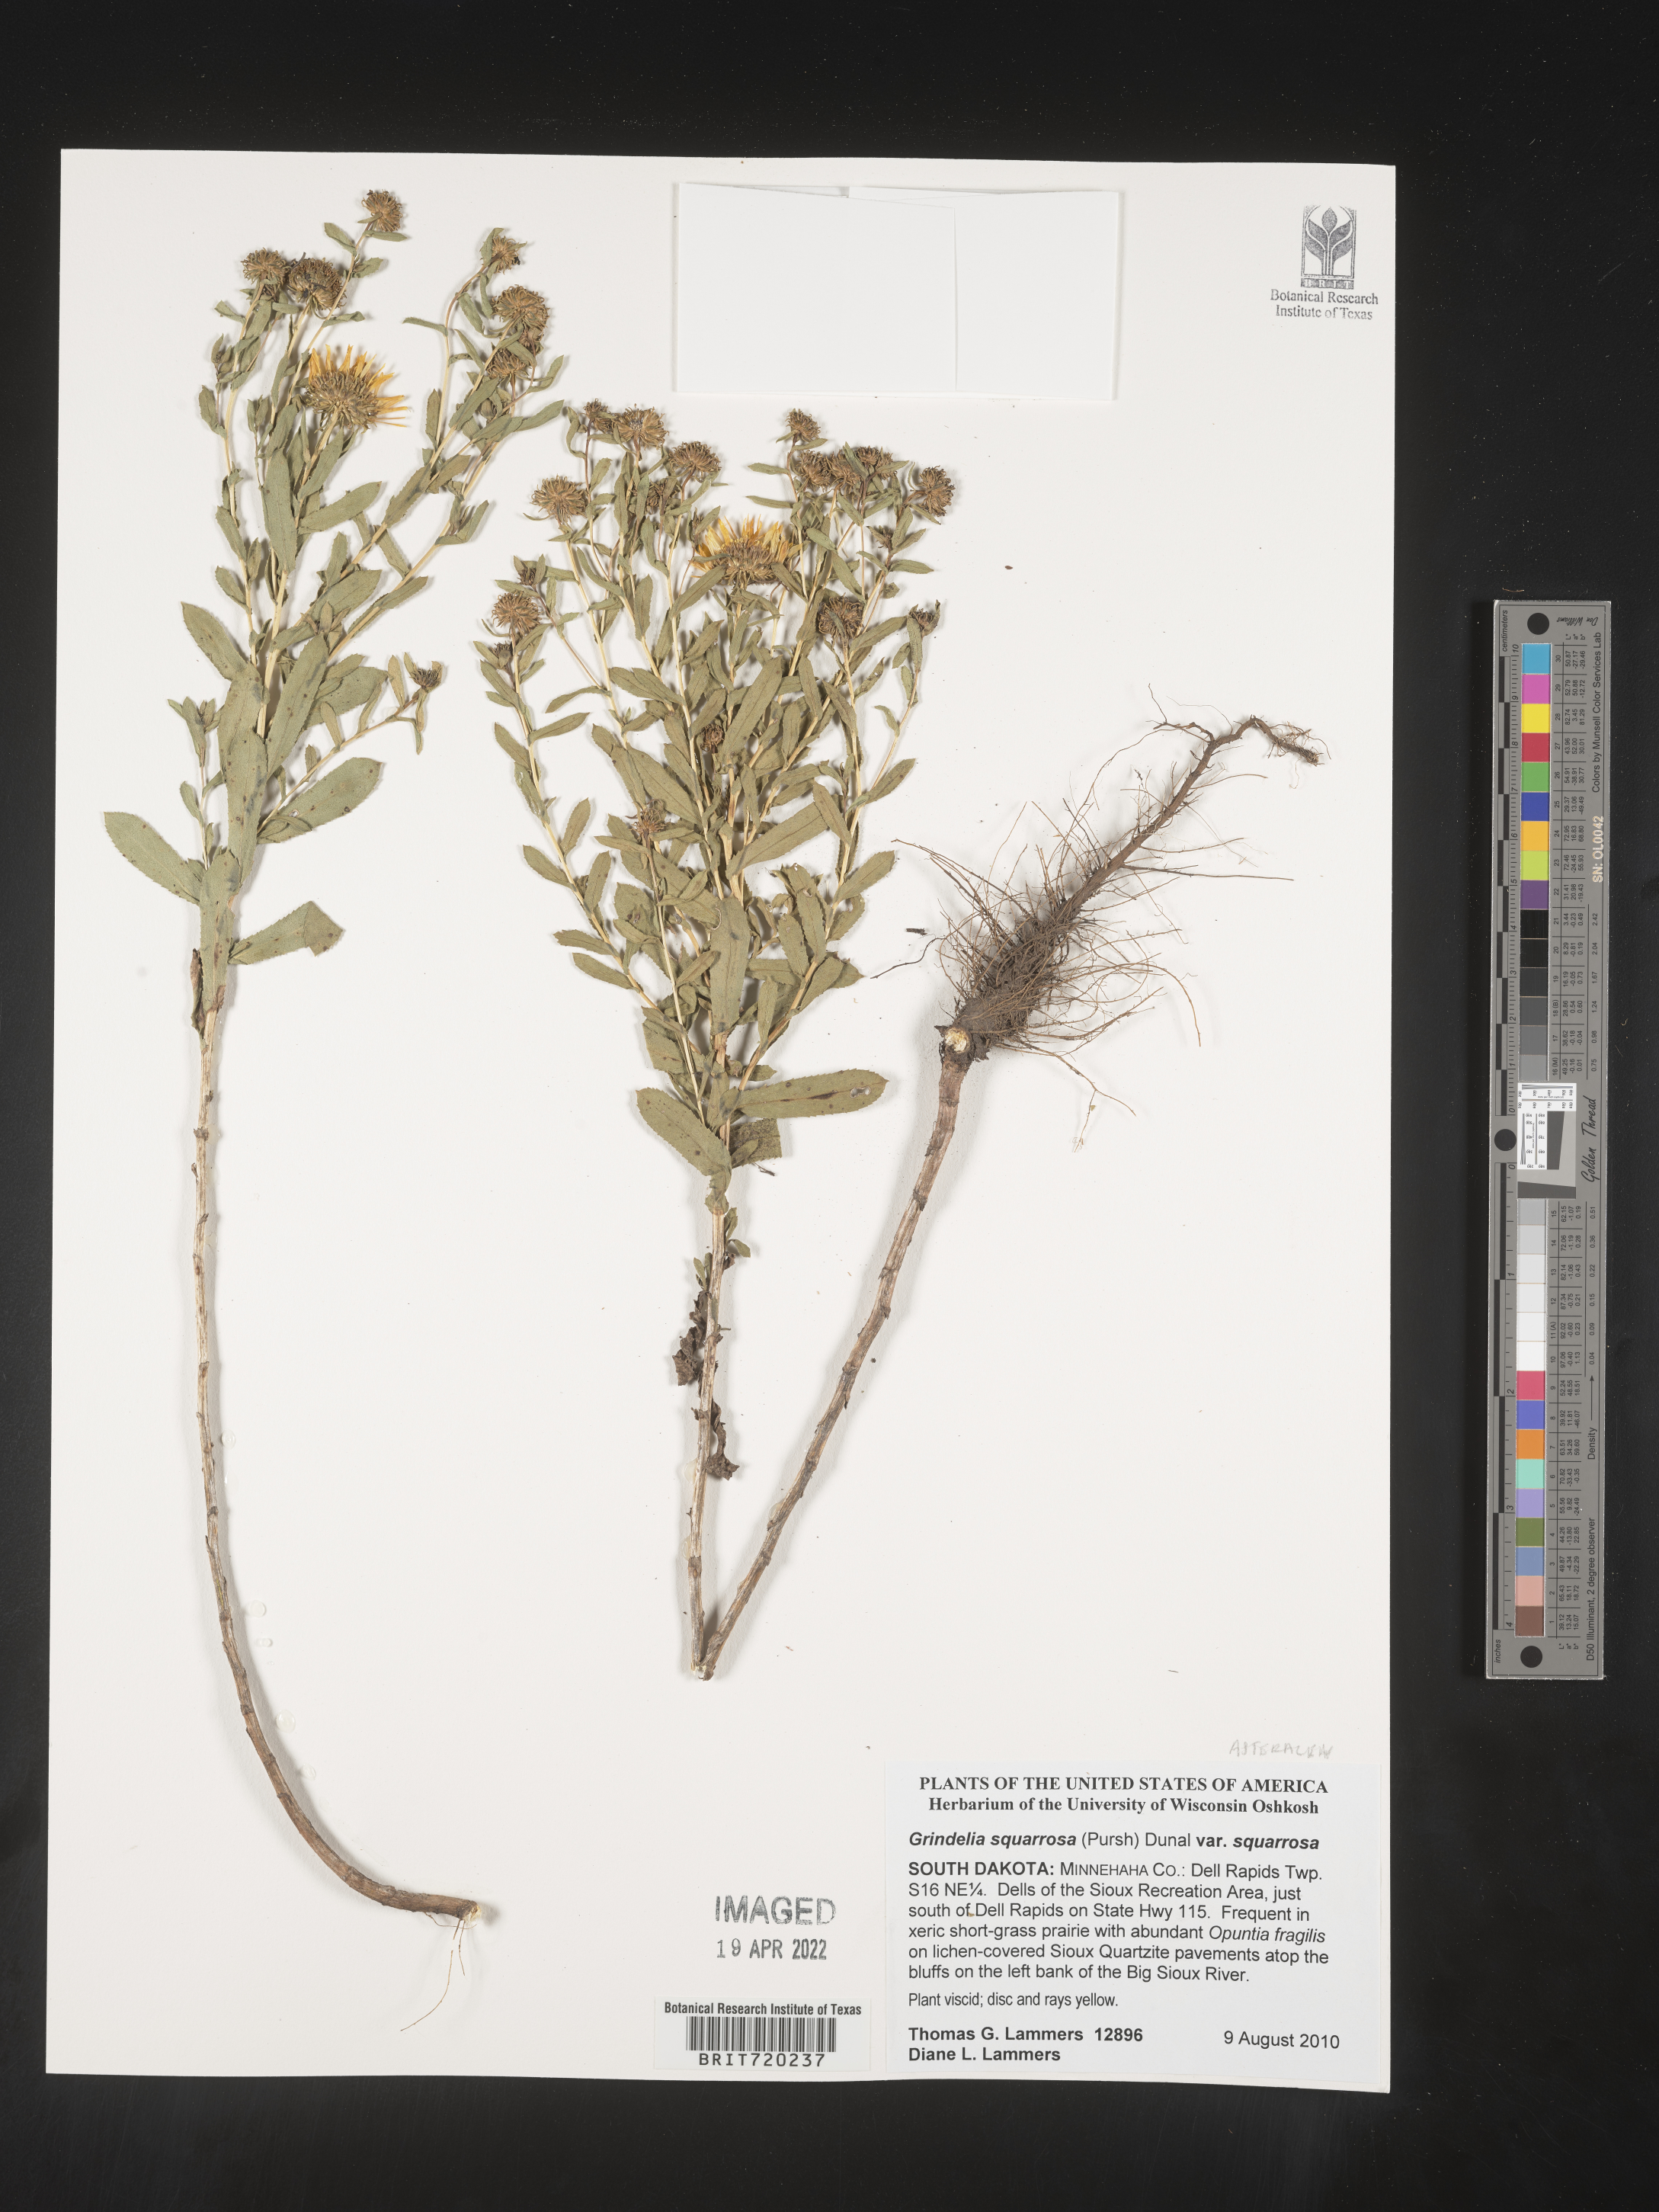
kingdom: Plantae
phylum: Tracheophyta
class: Magnoliopsida
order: Asterales
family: Asteraceae
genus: Grindelia
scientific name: Grindelia squarrosa
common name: Curly-cup gumweed
